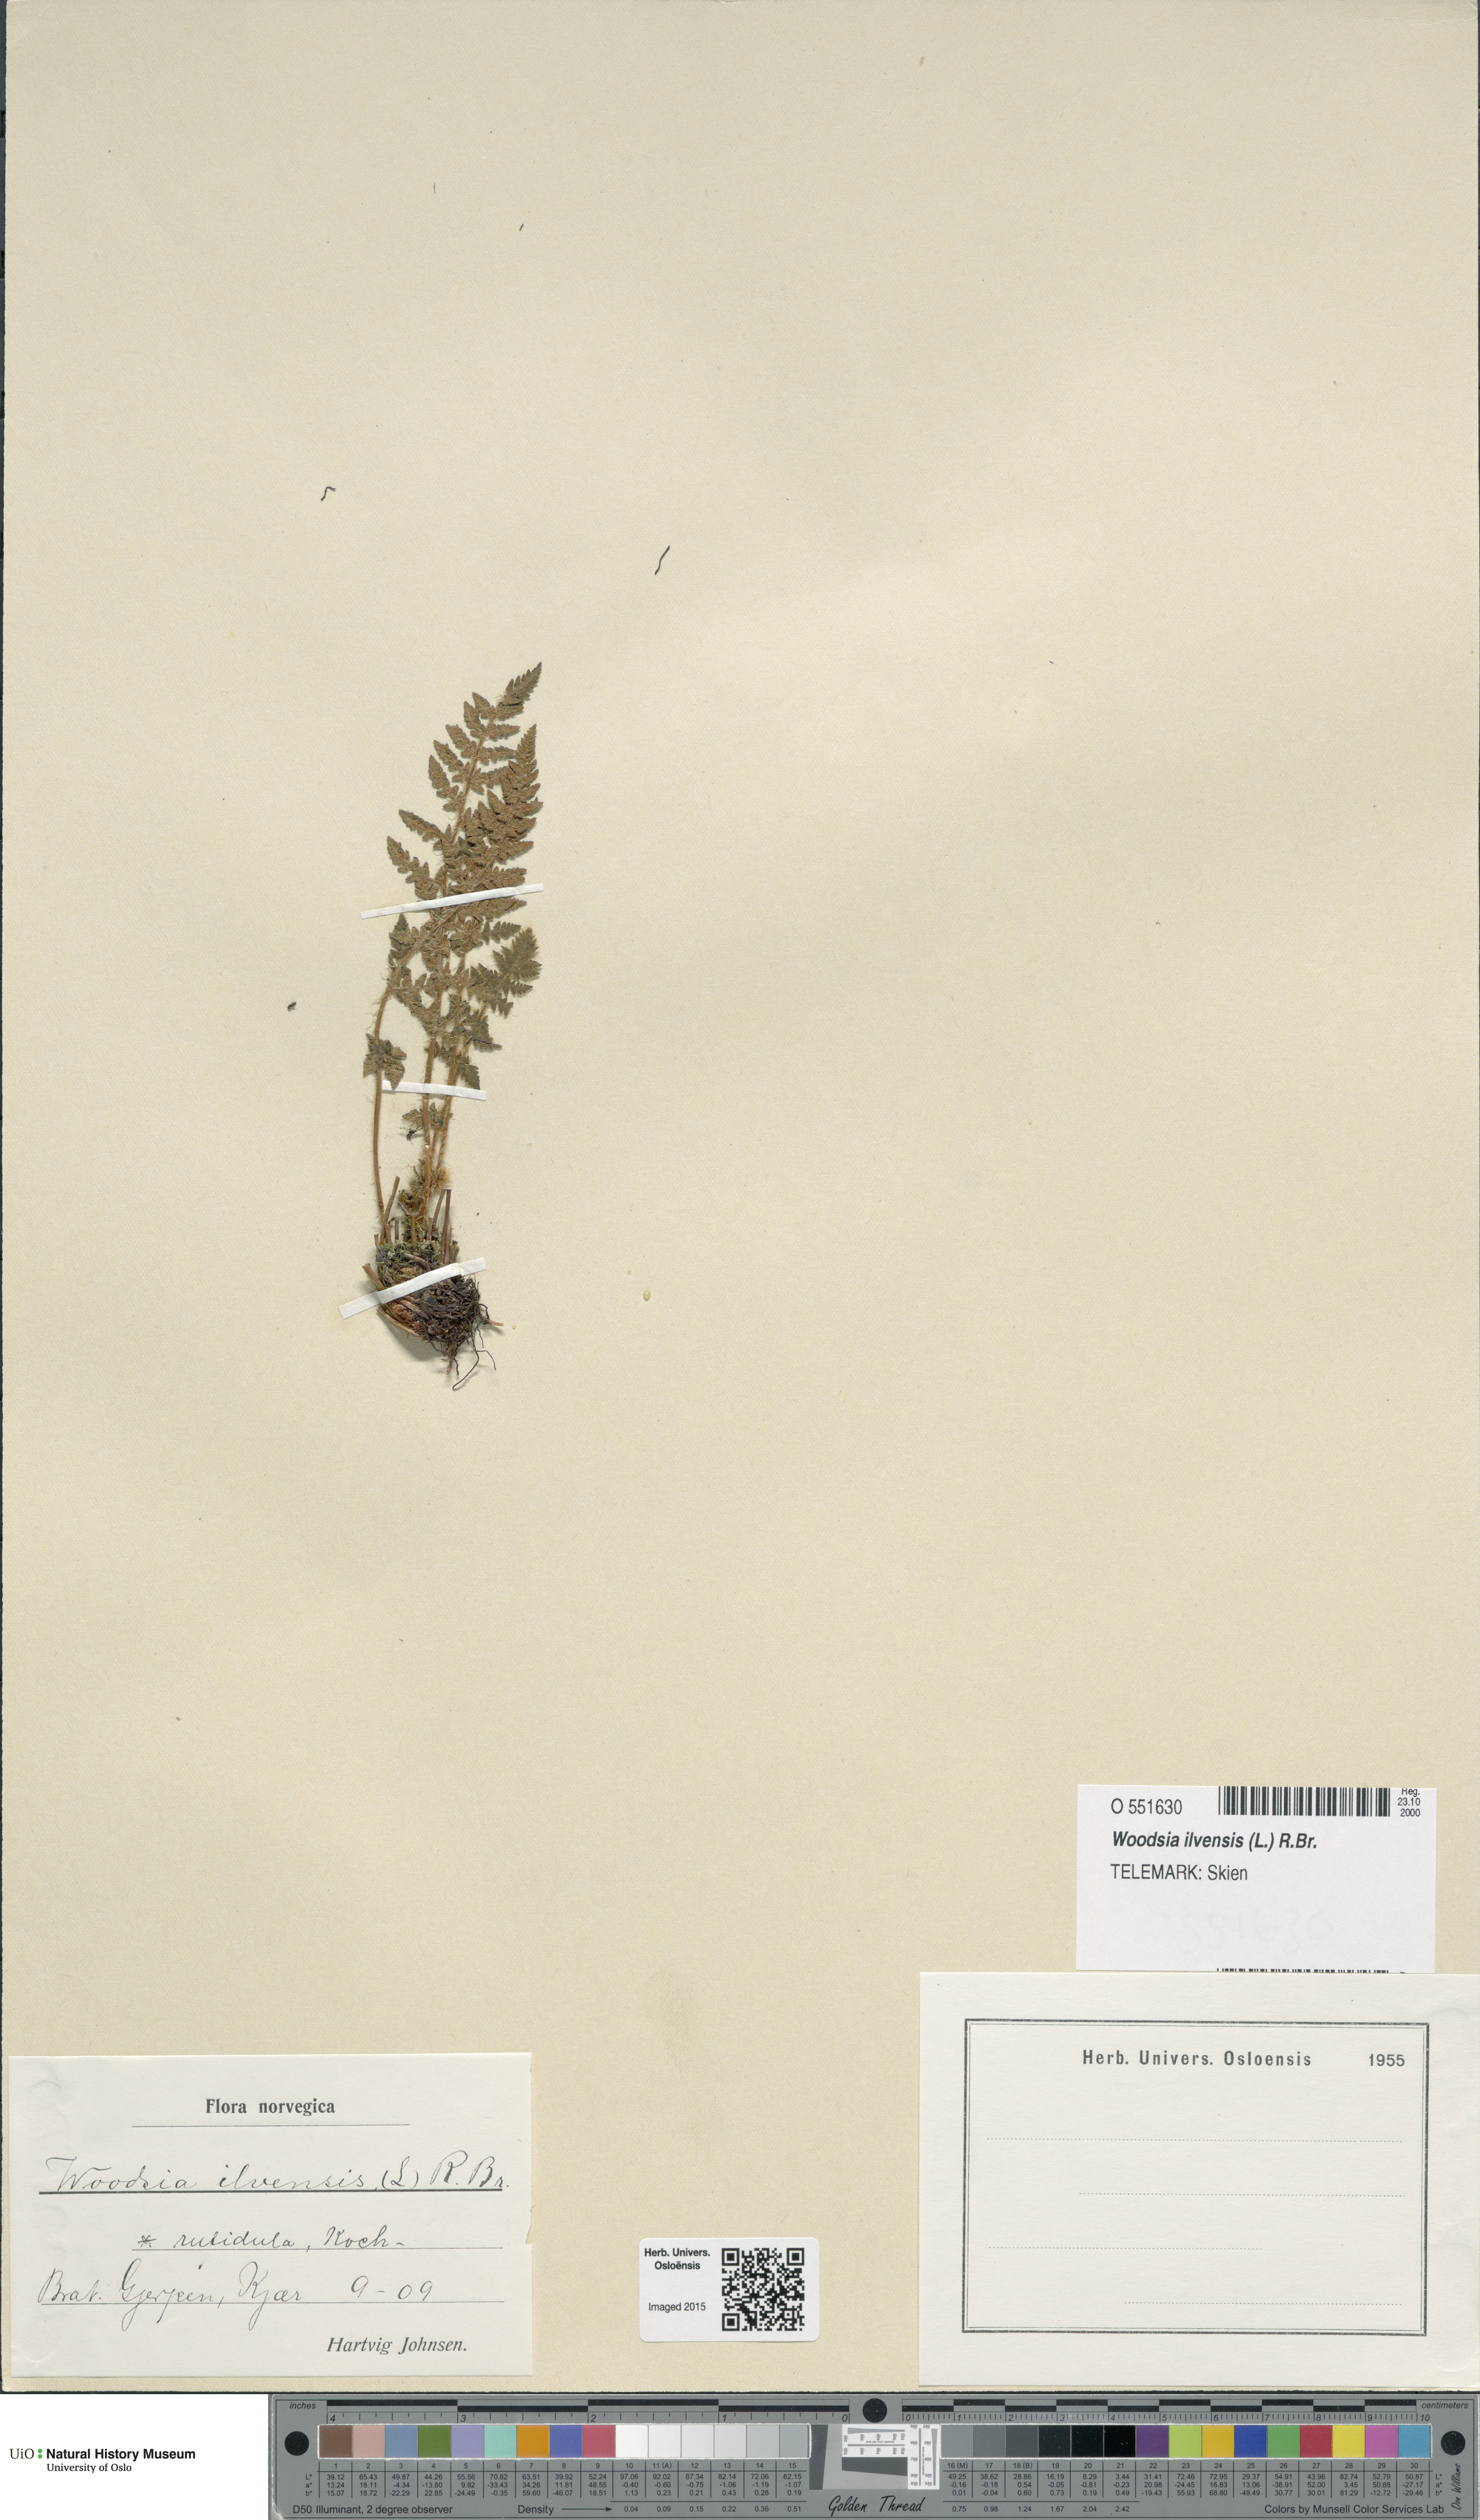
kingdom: Plantae
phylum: Tracheophyta
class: Polypodiopsida
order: Polypodiales
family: Woodsiaceae
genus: Woodsia
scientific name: Woodsia ilvensis
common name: Fragrant woodsia
